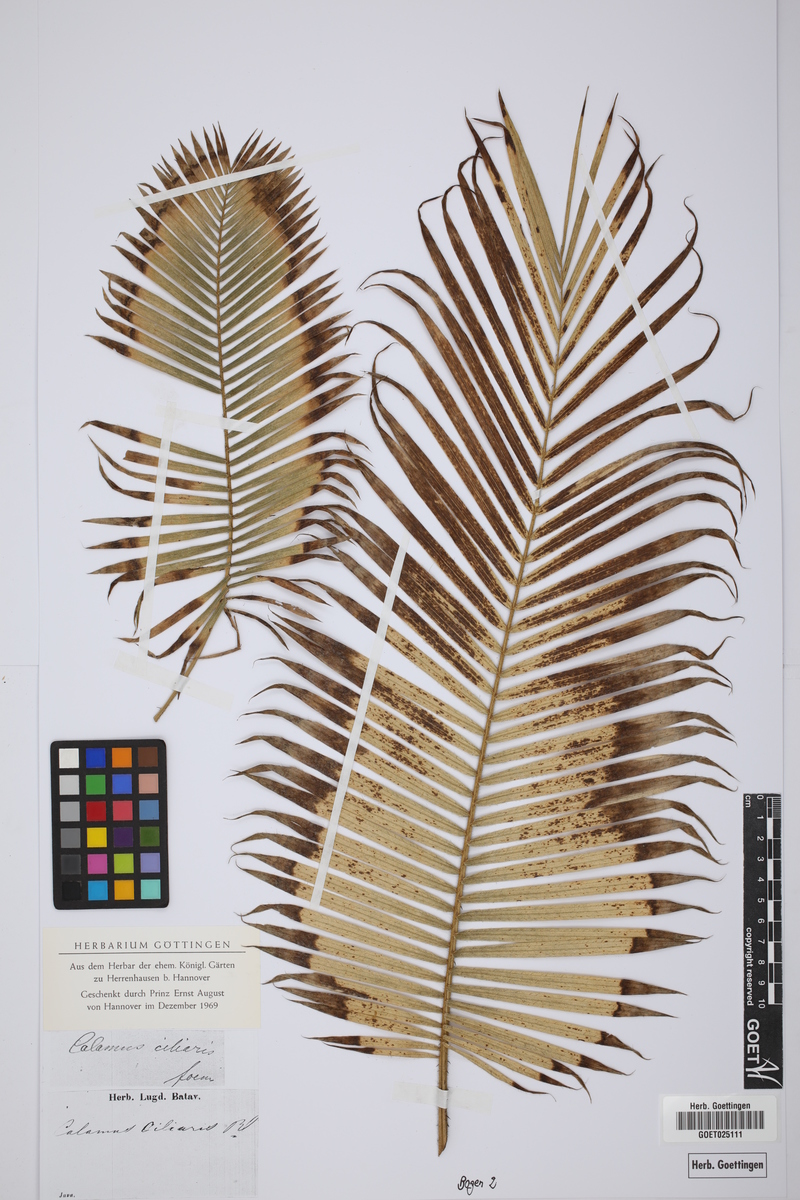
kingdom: Plantae
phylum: Tracheophyta
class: Liliopsida
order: Arecales
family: Arecaceae
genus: Calamus
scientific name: Calamus ciliaris
